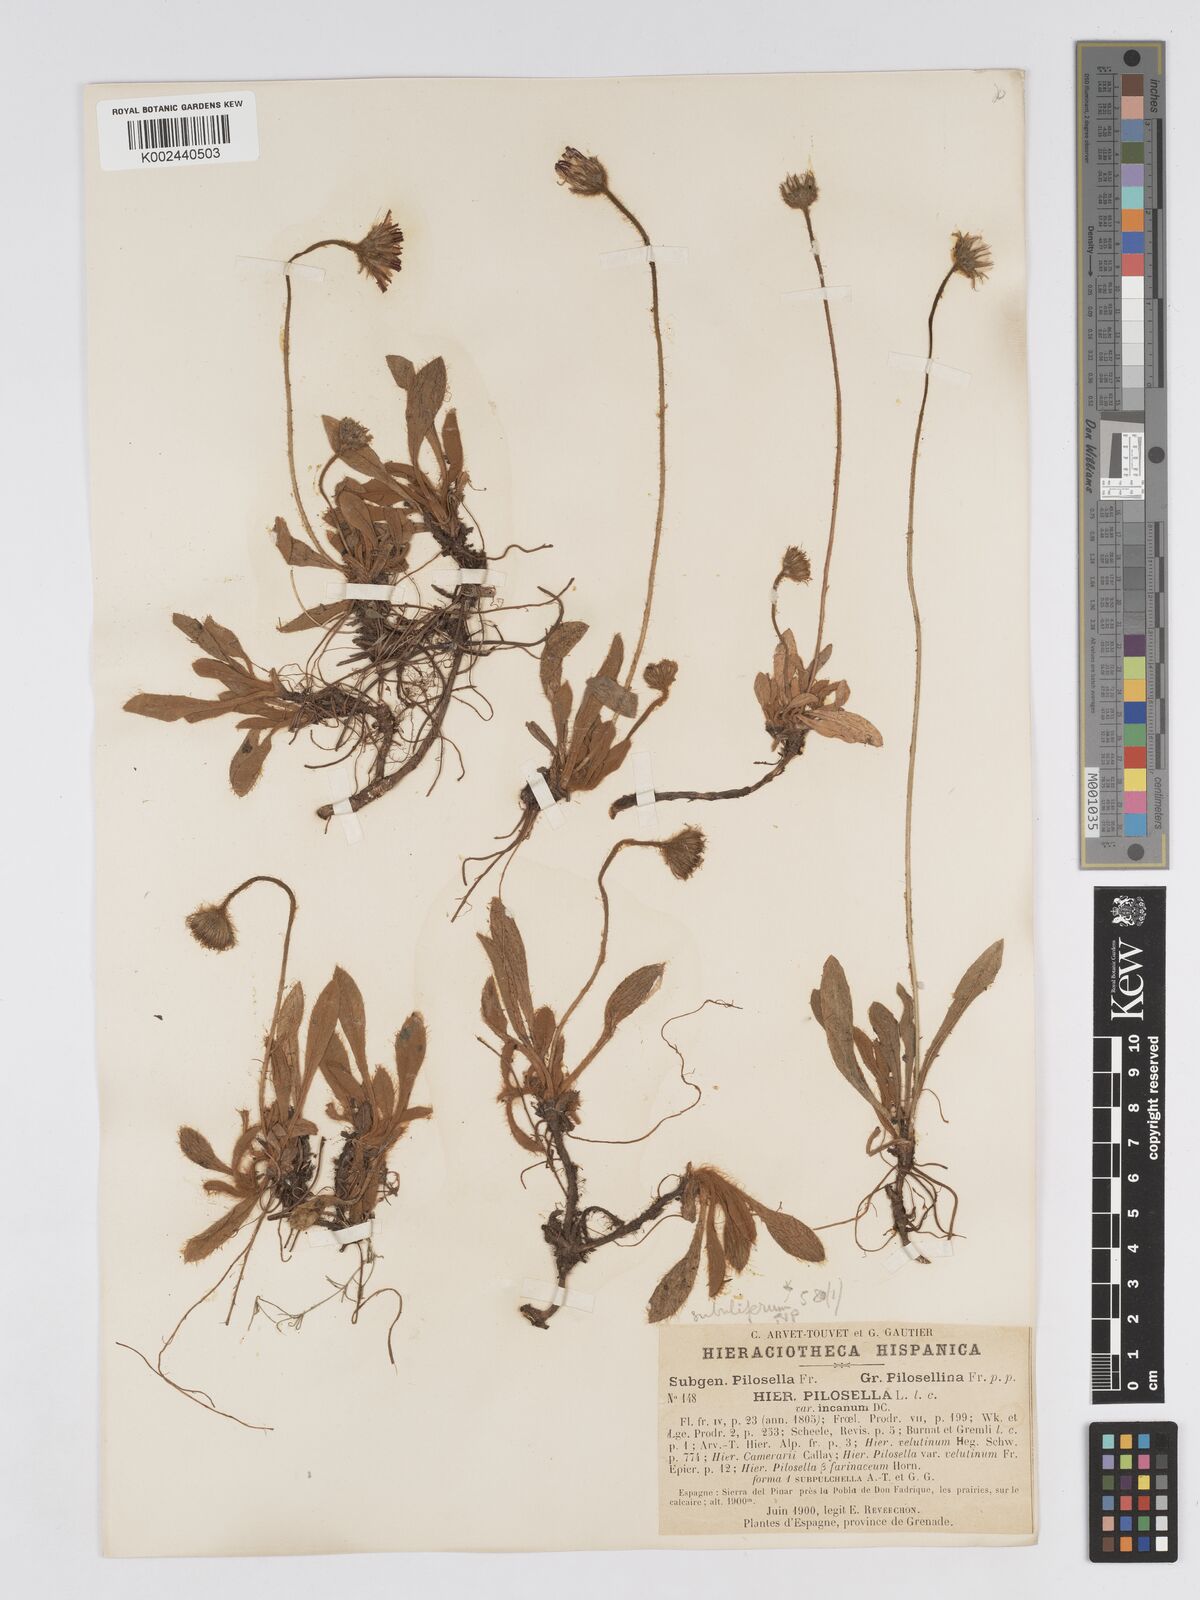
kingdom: Plantae
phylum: Tracheophyta
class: Magnoliopsida
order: Asterales
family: Asteraceae
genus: Pilosella
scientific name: Pilosella argyrocoma
